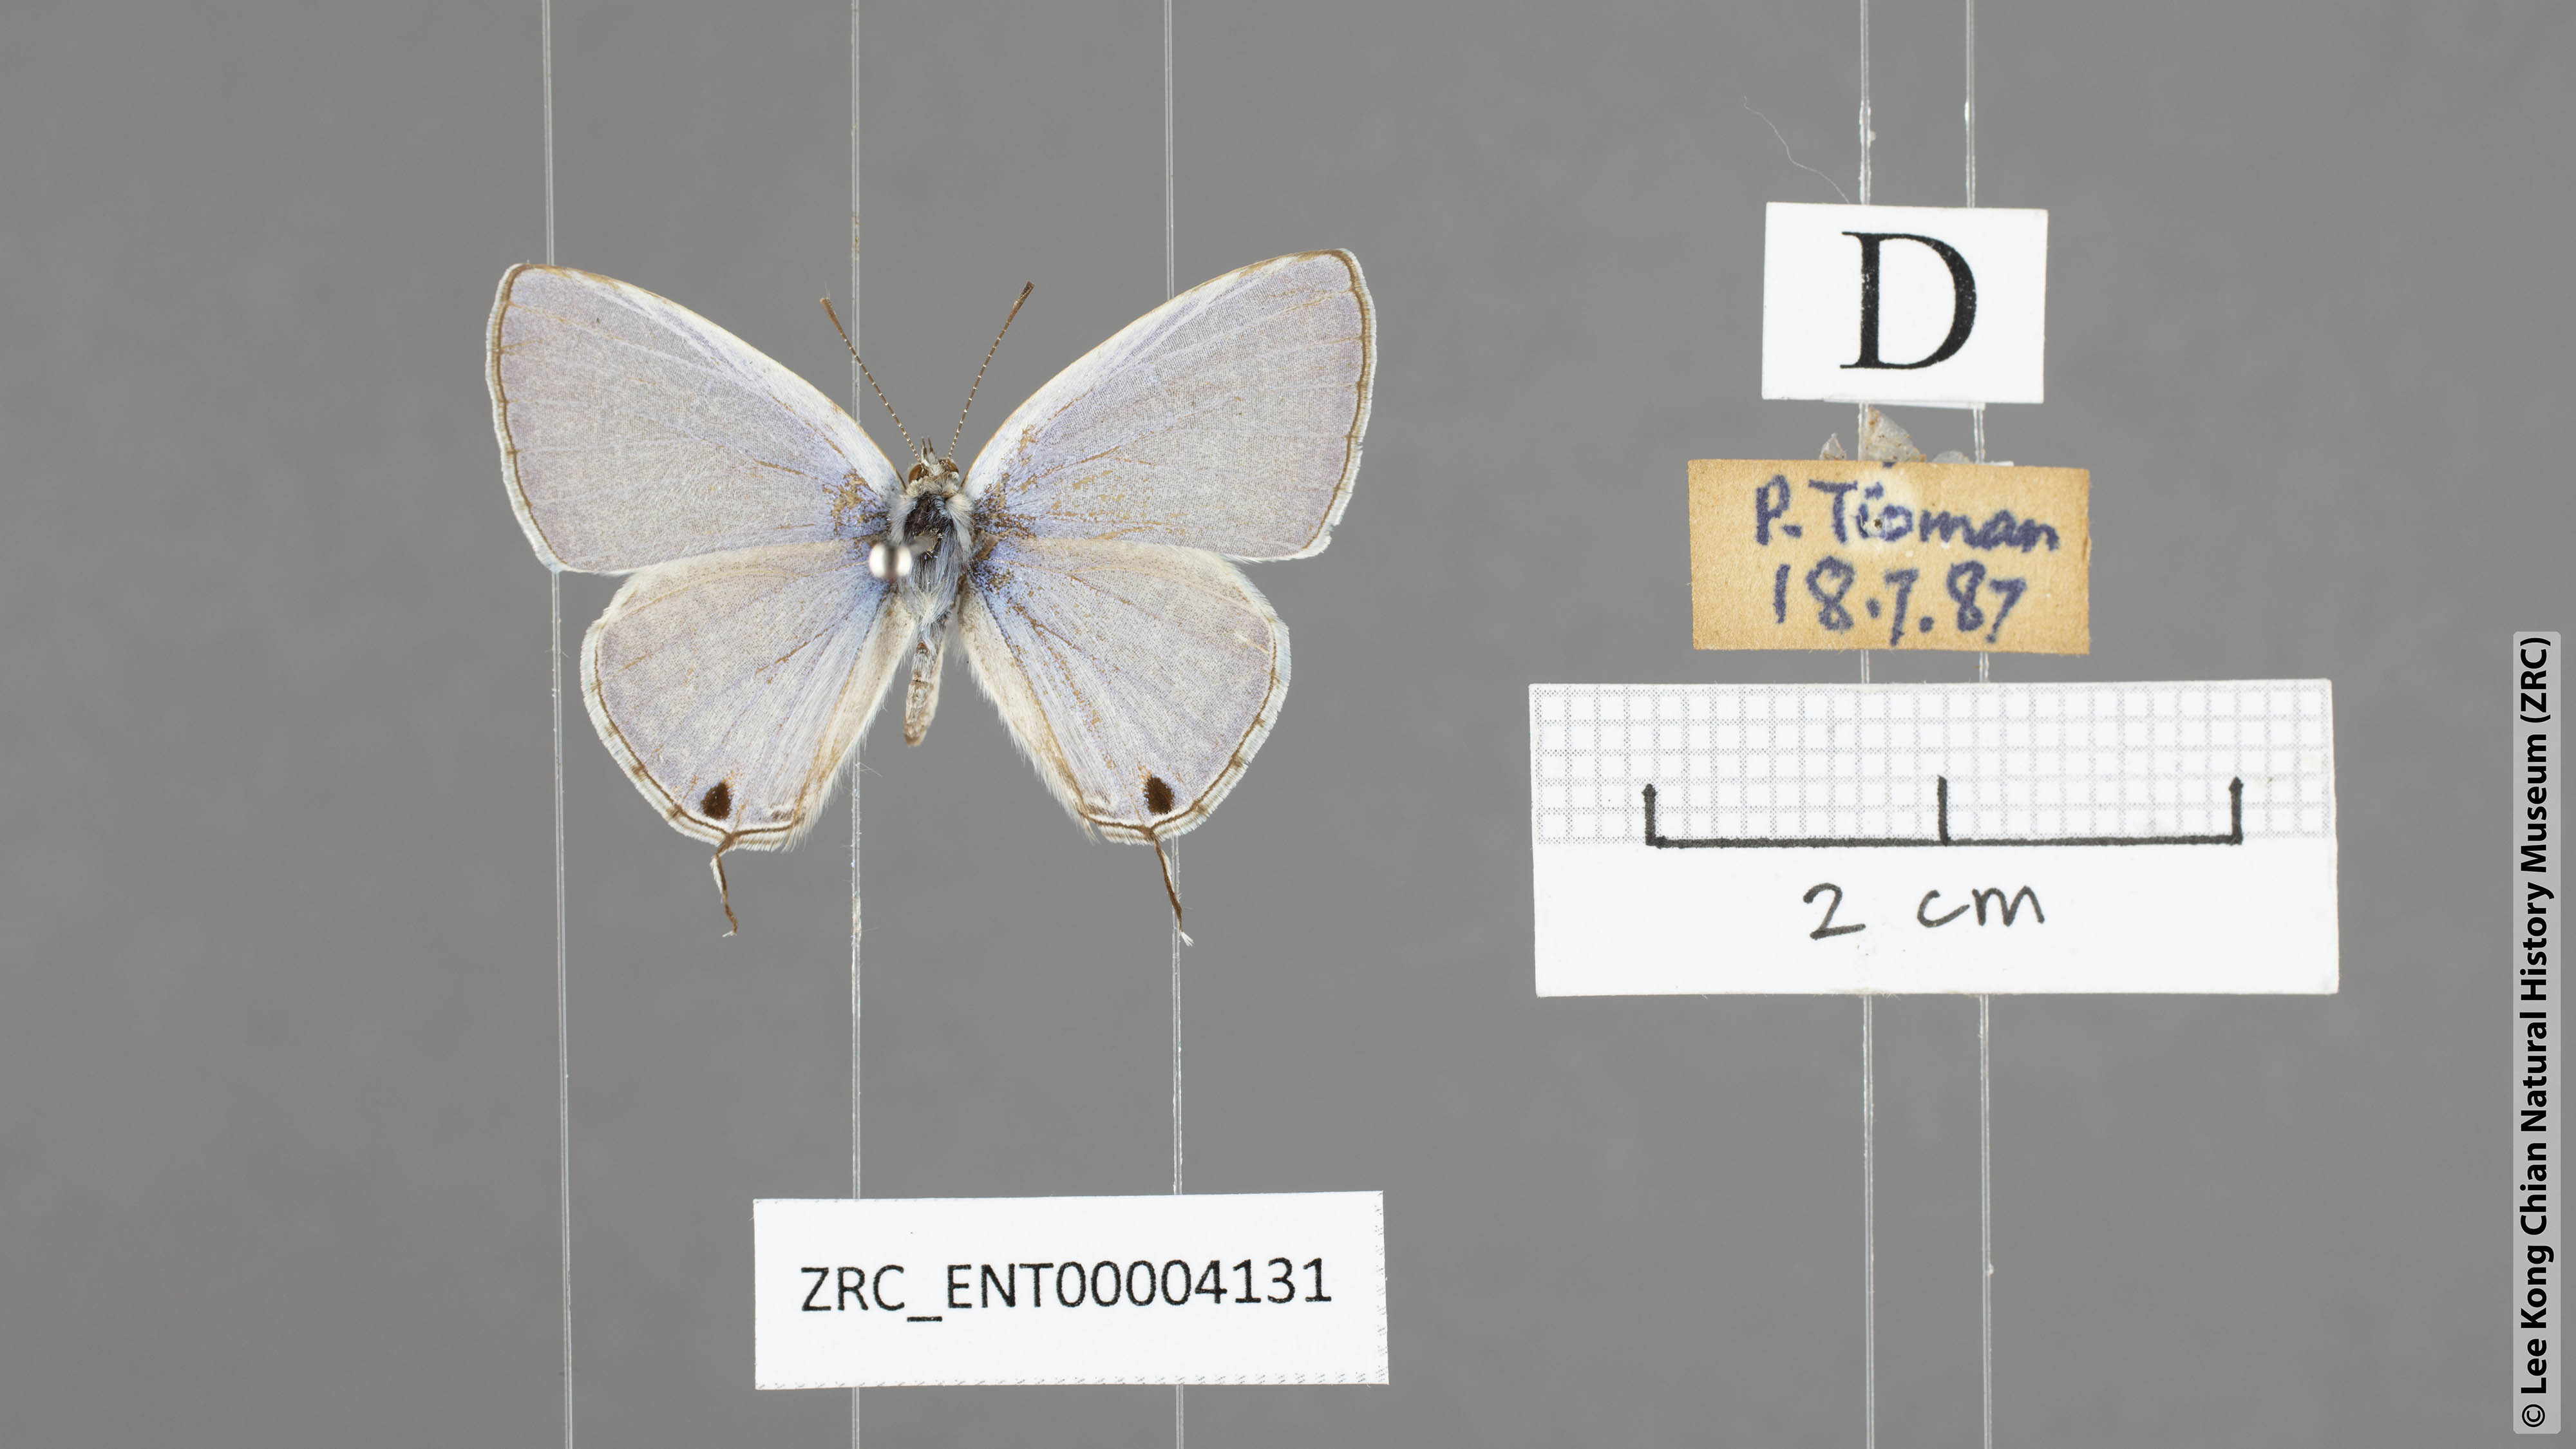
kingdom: Animalia
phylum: Arthropoda
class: Insecta
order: Lepidoptera
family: Lycaenidae
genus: Catochrysops
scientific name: Catochrysops strabo
